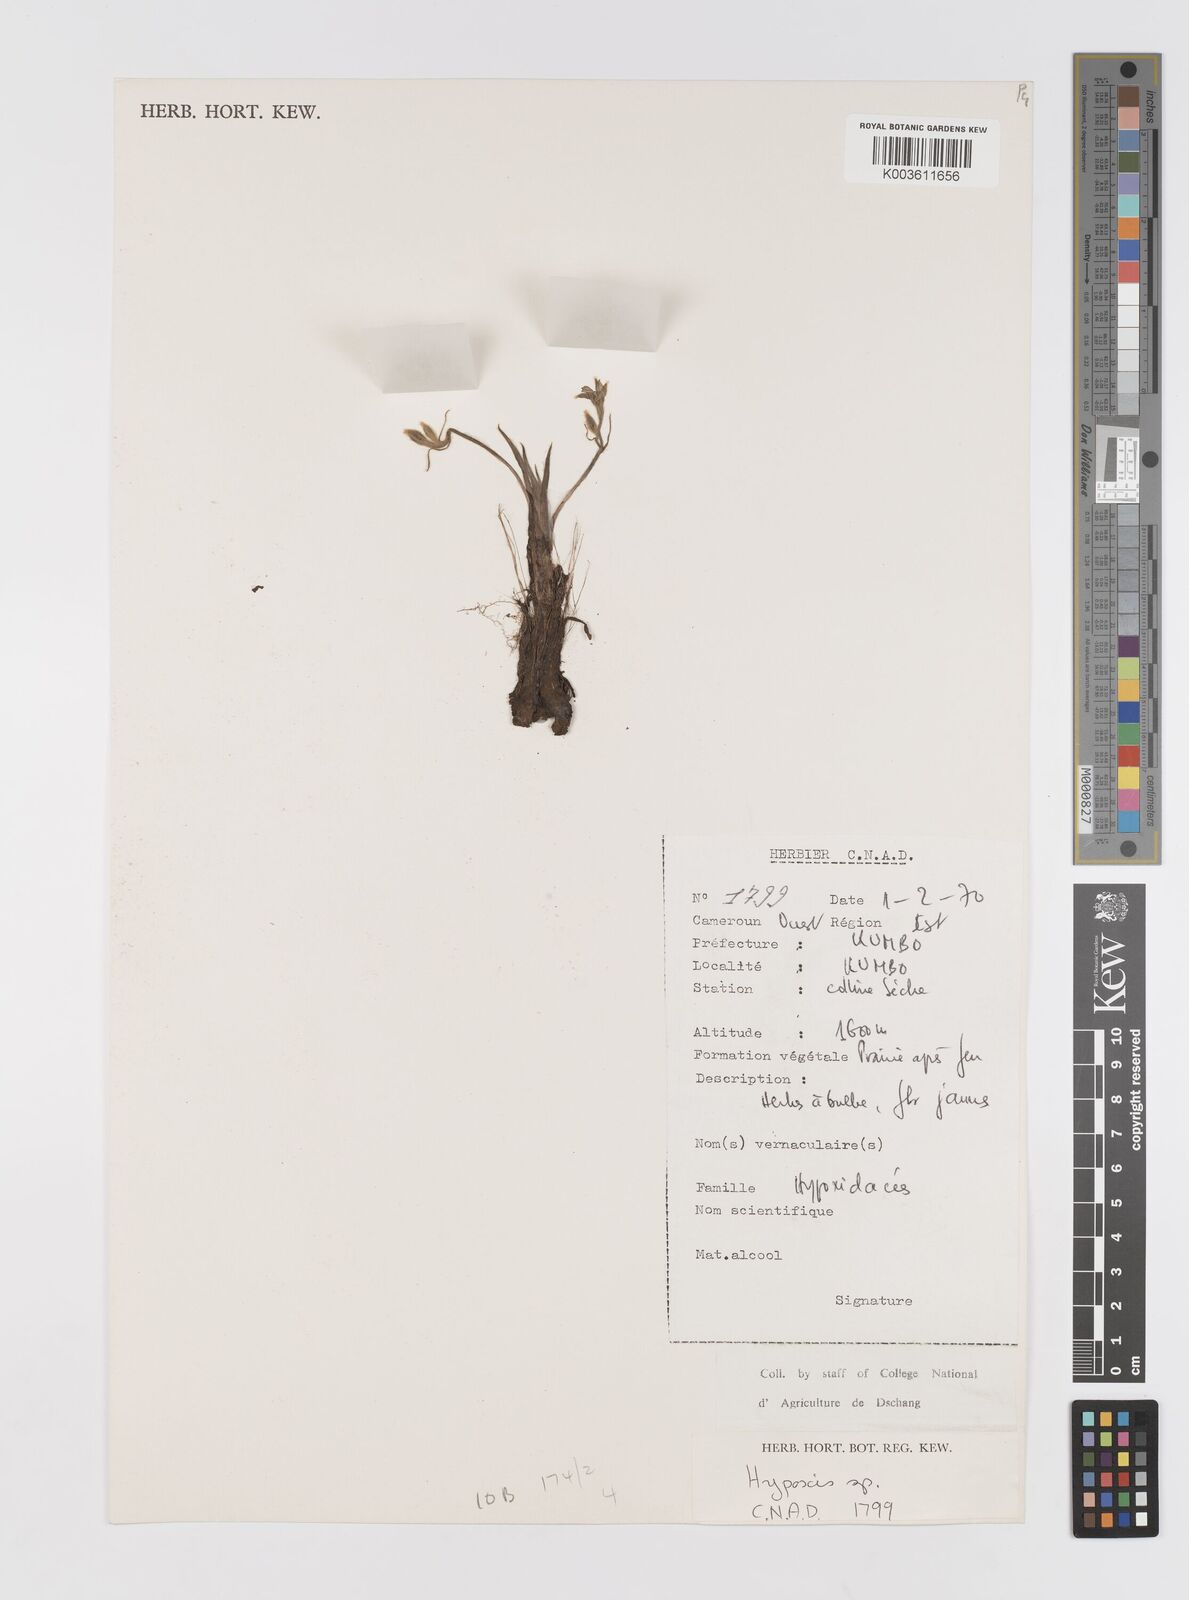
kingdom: Plantae
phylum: Tracheophyta
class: Liliopsida
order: Asparagales
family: Hypoxidaceae
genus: Hypoxis
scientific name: Hypoxis
